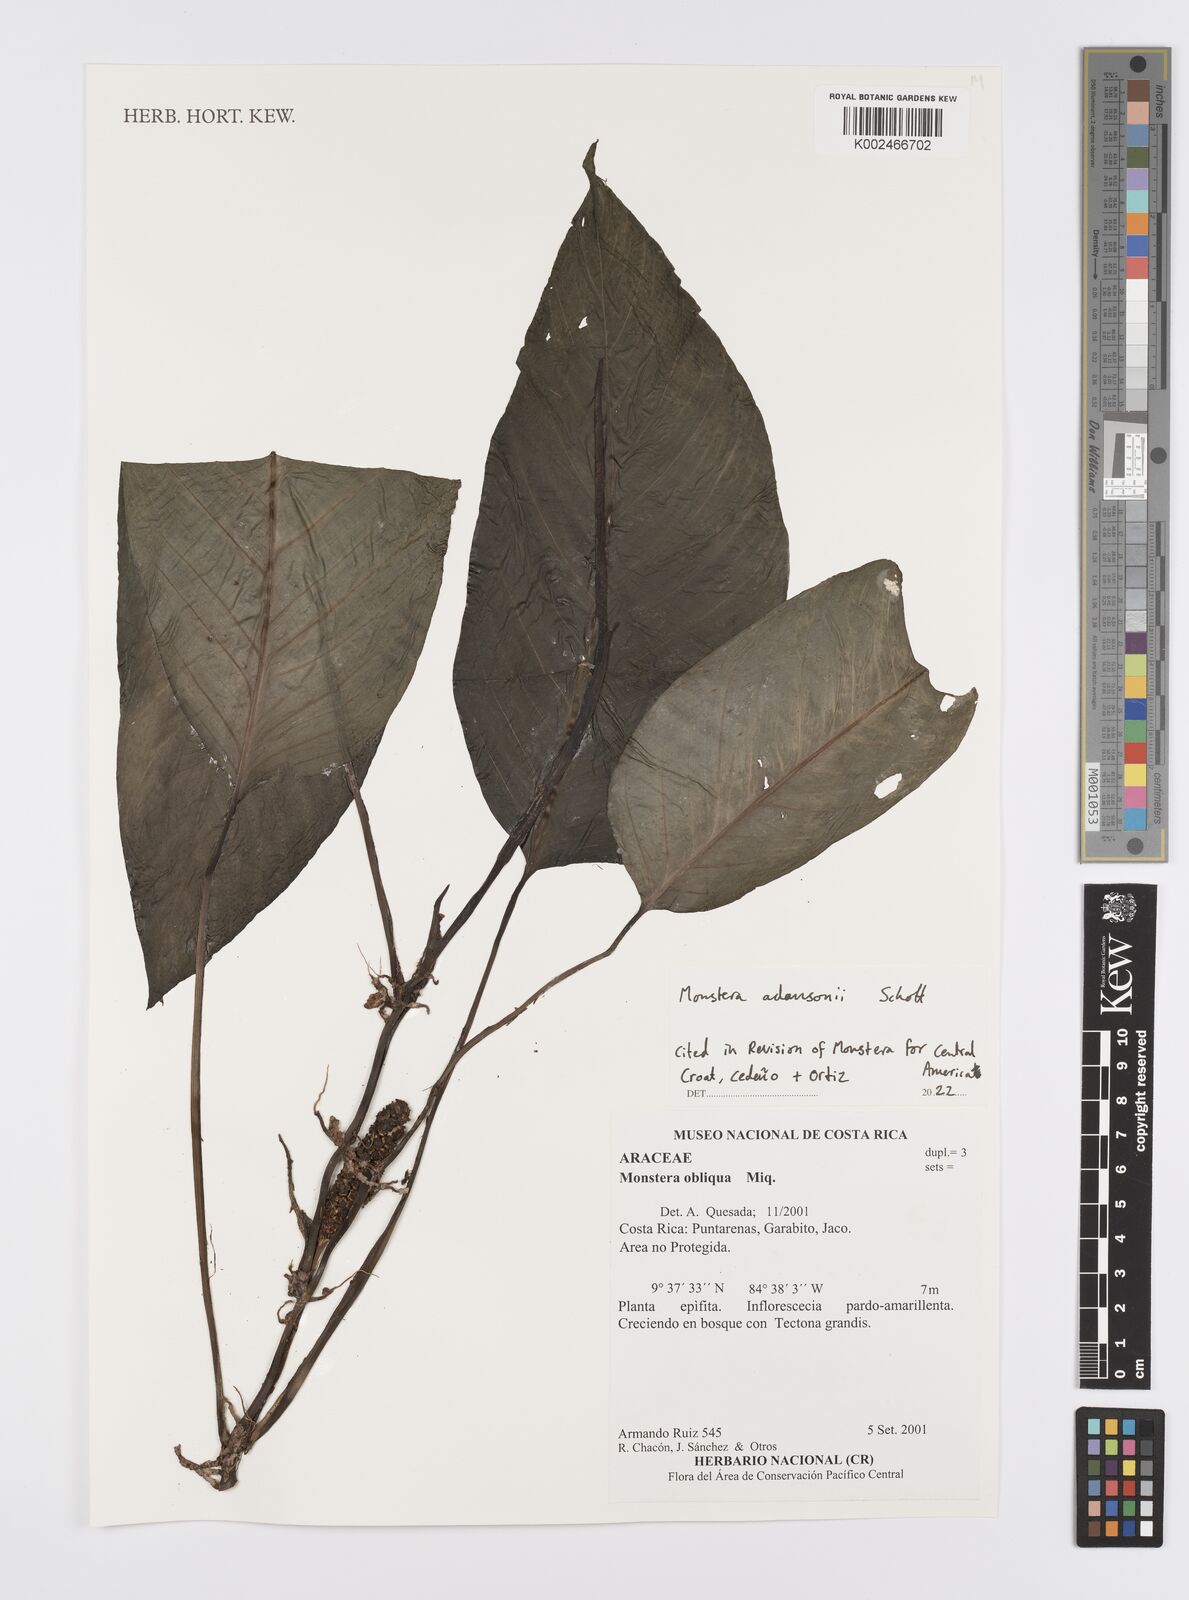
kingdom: Plantae
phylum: Tracheophyta
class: Liliopsida
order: Alismatales
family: Araceae
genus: Monstera
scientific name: Monstera adansonii
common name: Tarovine
